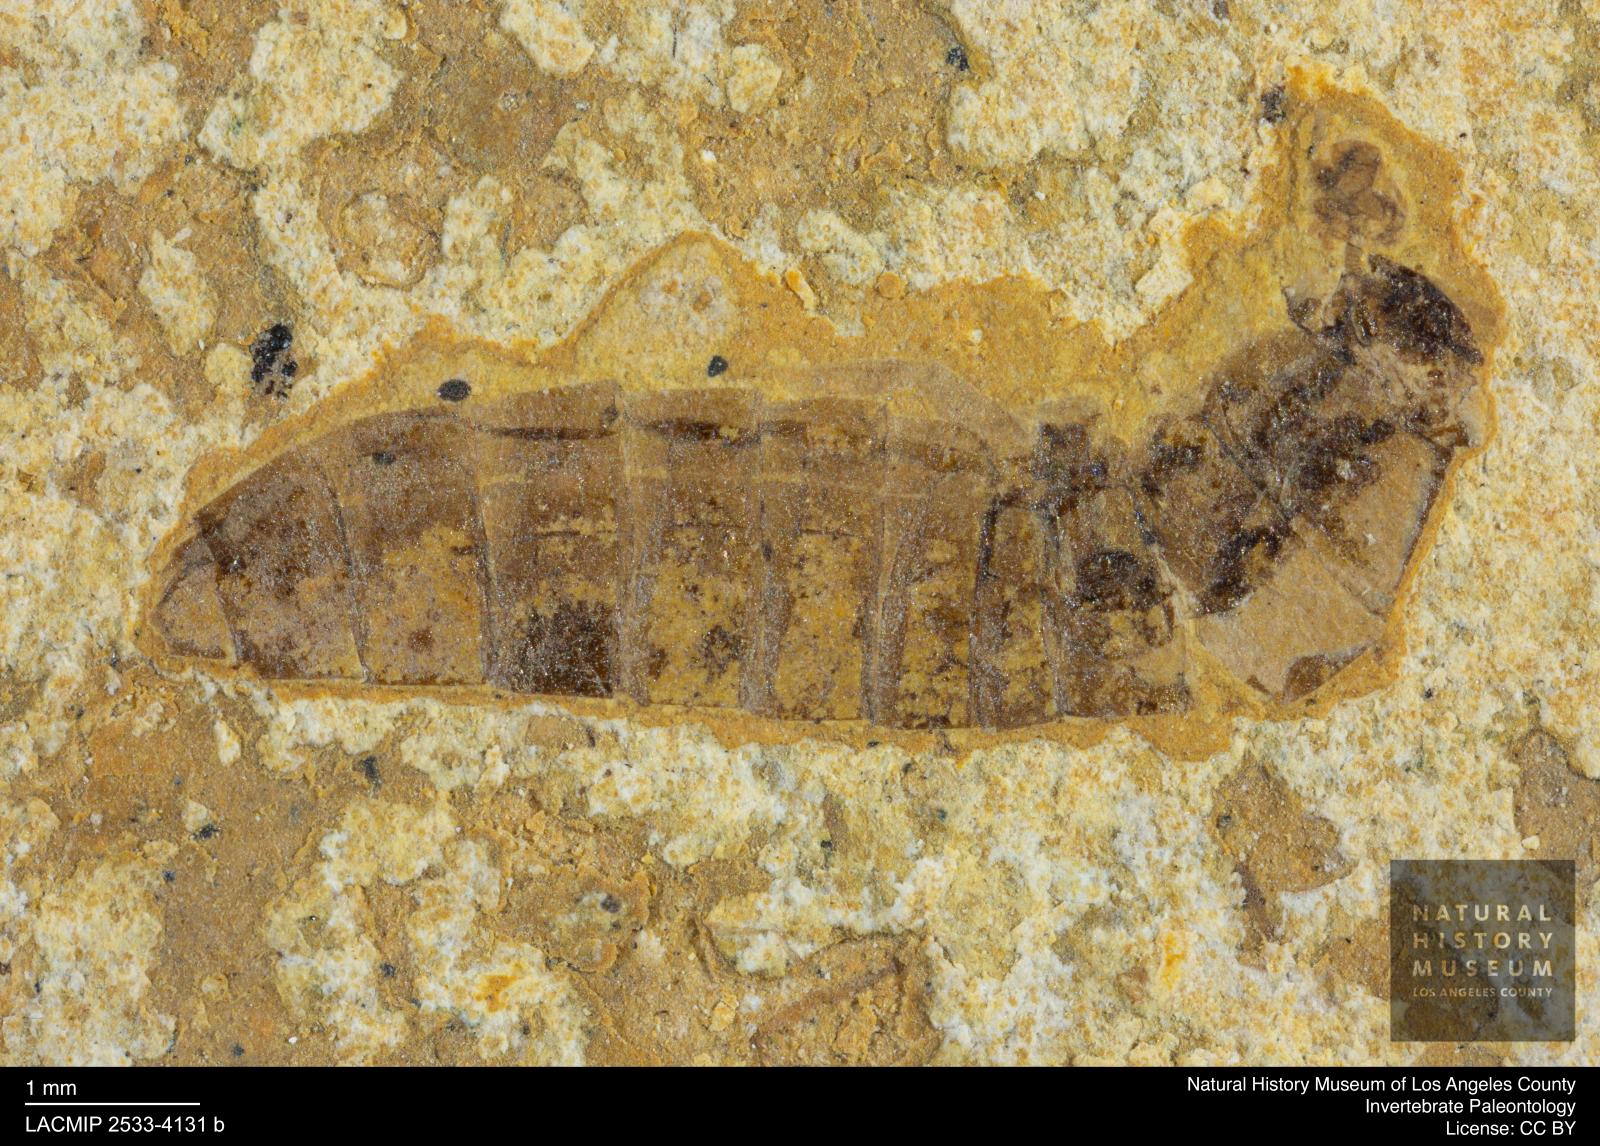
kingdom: Animalia
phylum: Arthropoda
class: Insecta
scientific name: Insecta
